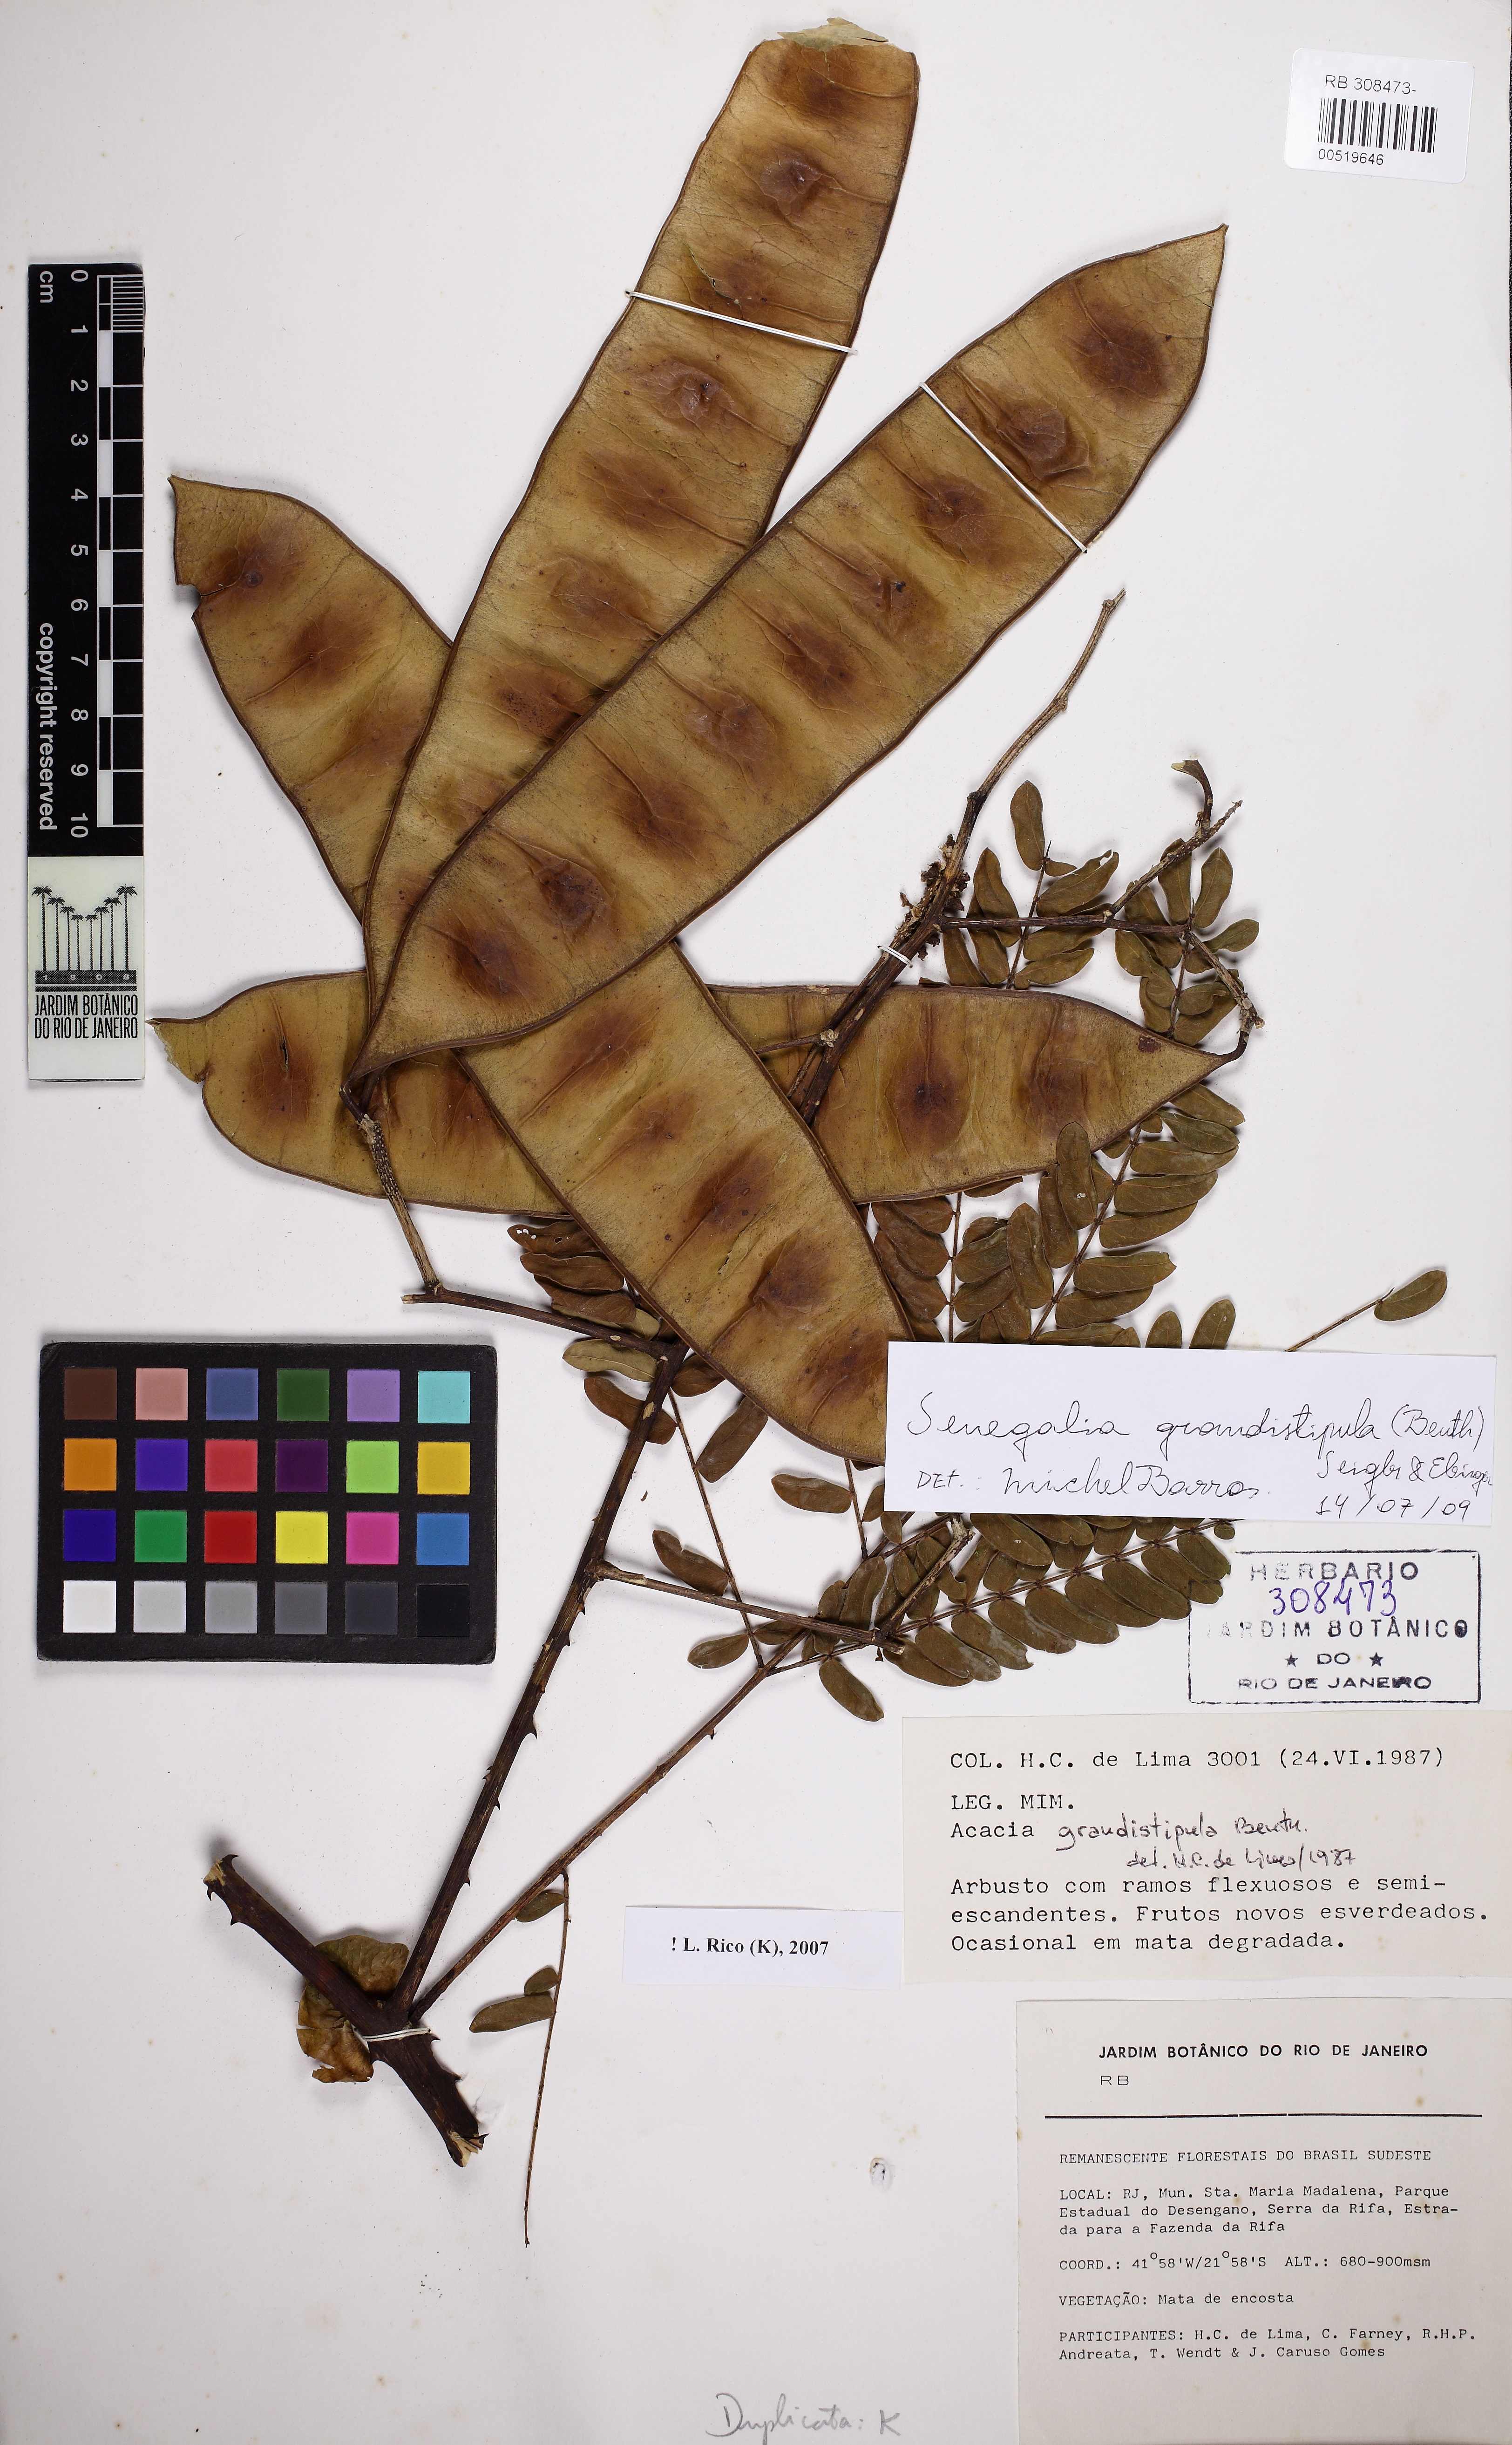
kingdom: Plantae
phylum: Tracheophyta
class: Magnoliopsida
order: Fabales
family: Fabaceae
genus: Senegalia
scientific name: Senegalia grandistipula
